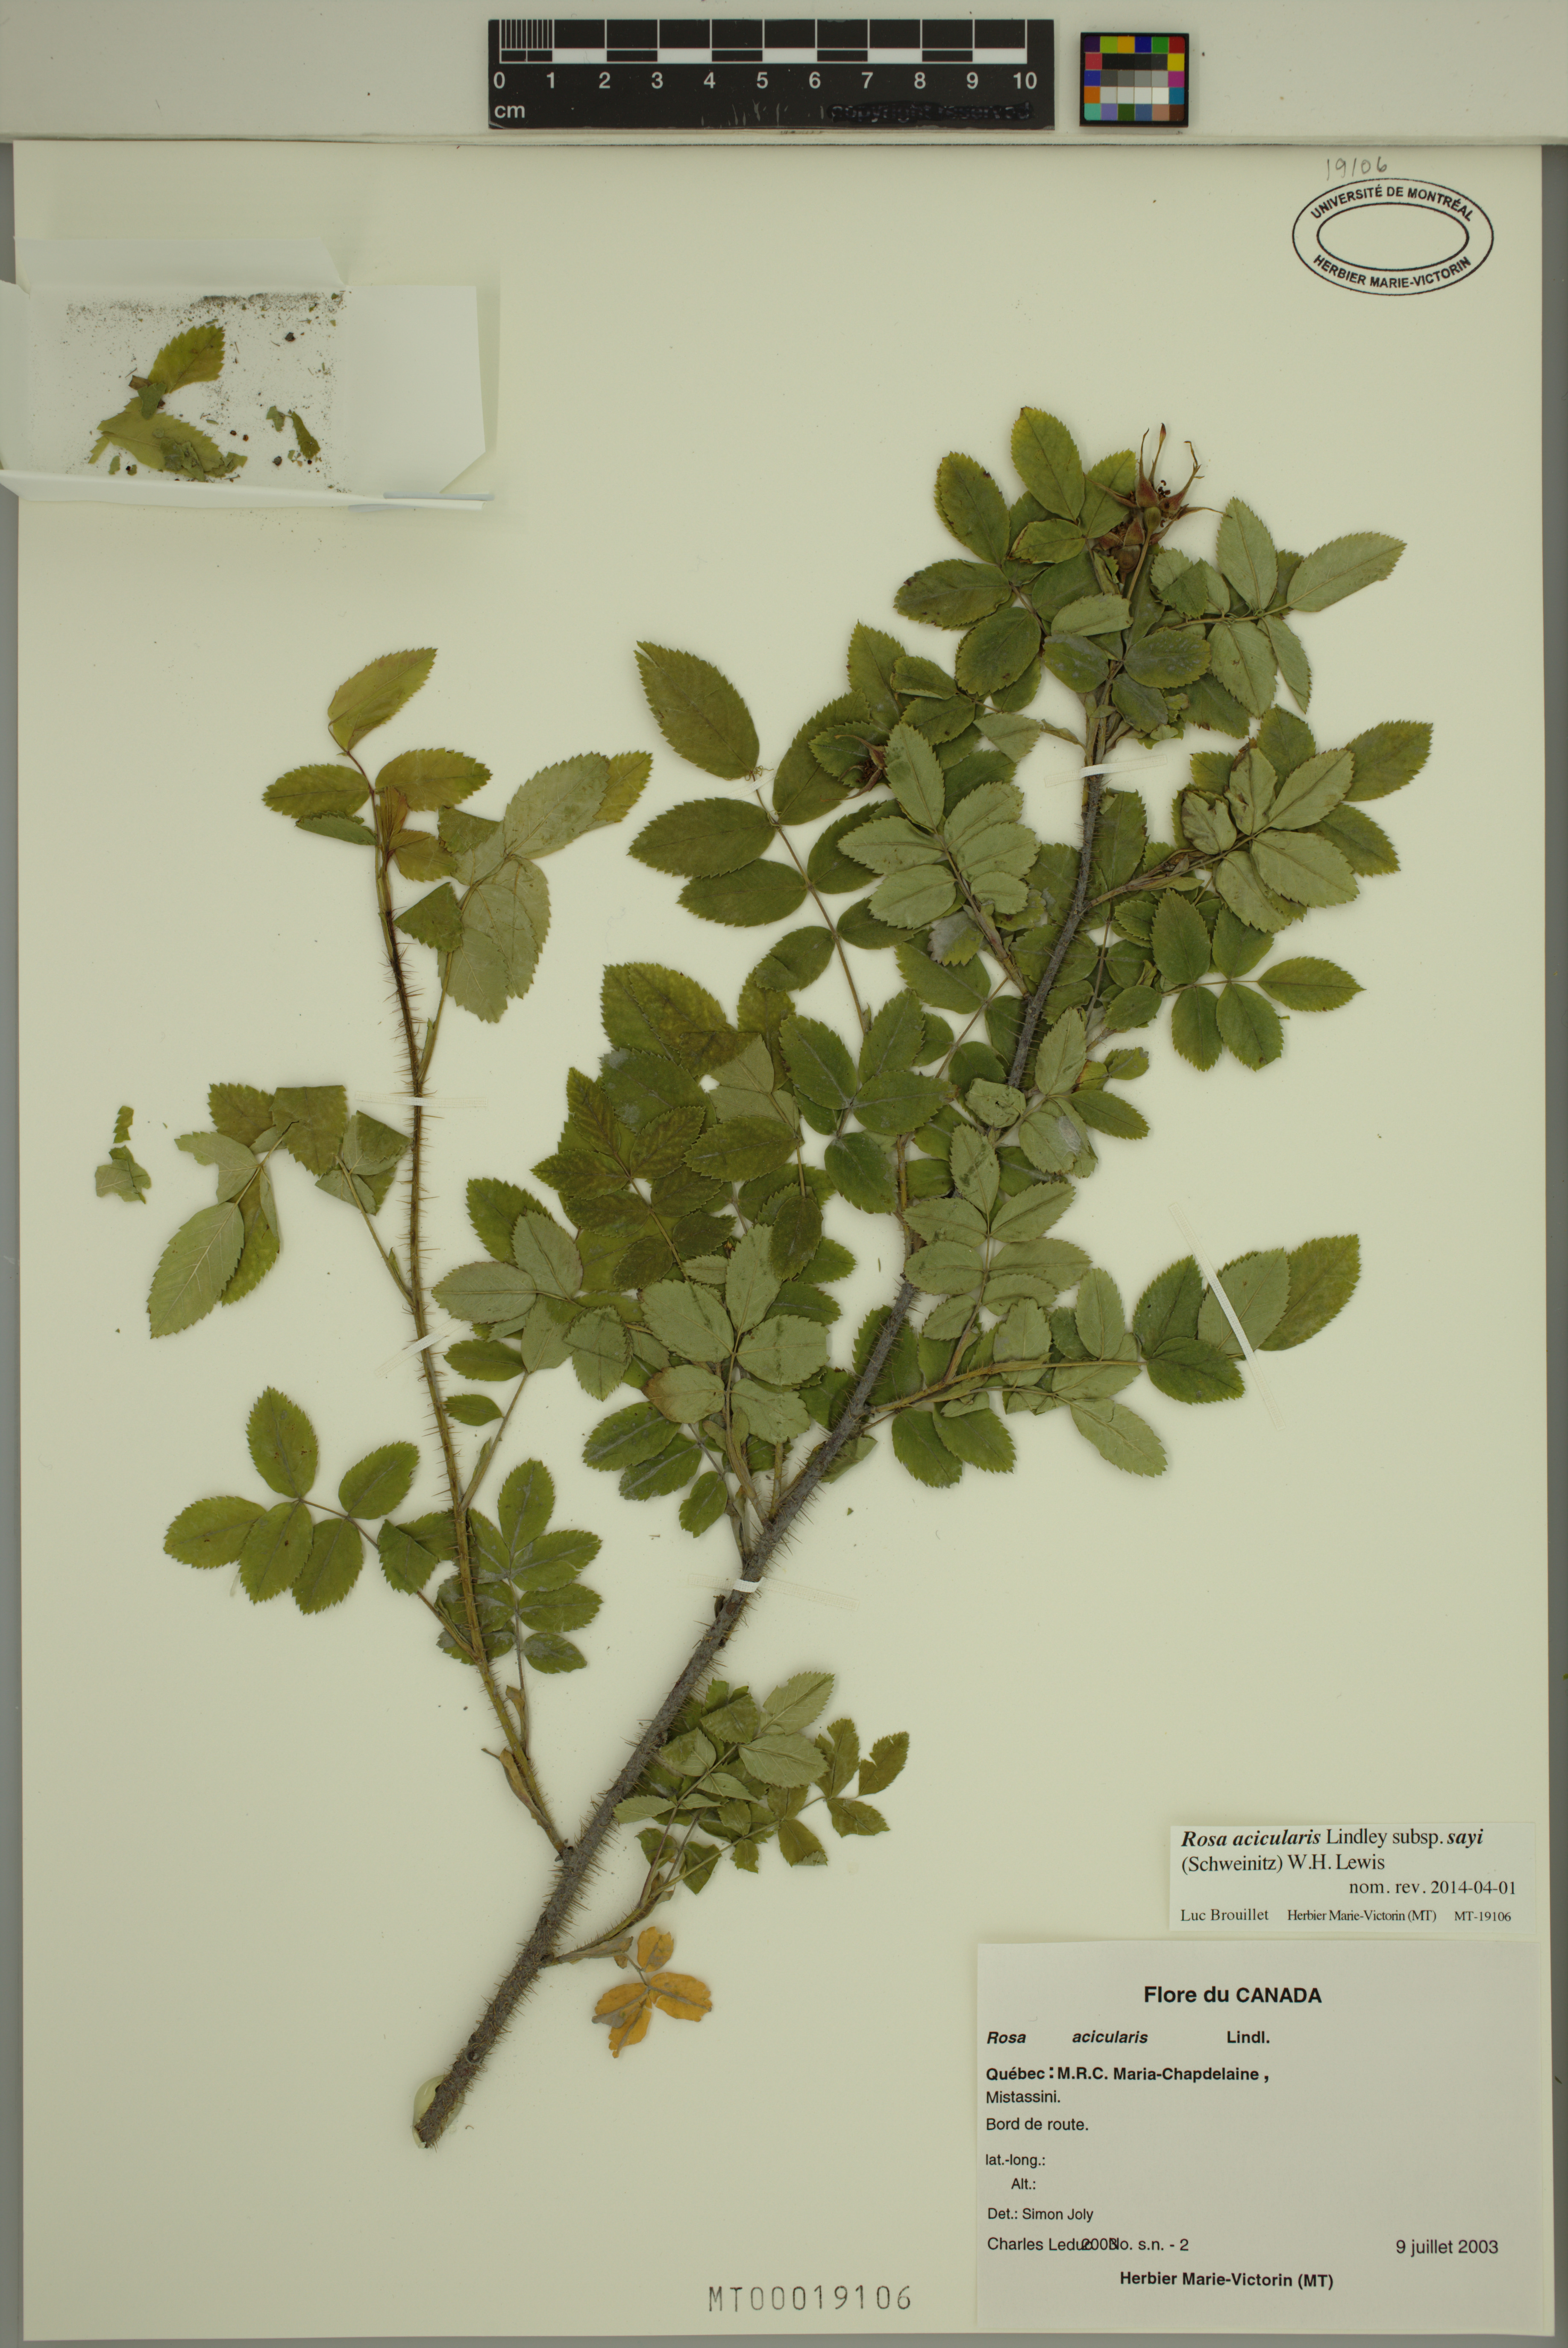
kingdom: Plantae
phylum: Tracheophyta
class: Magnoliopsida
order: Rosales
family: Rosaceae
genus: Rosa
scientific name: Rosa acicularis
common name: Prickly rose
